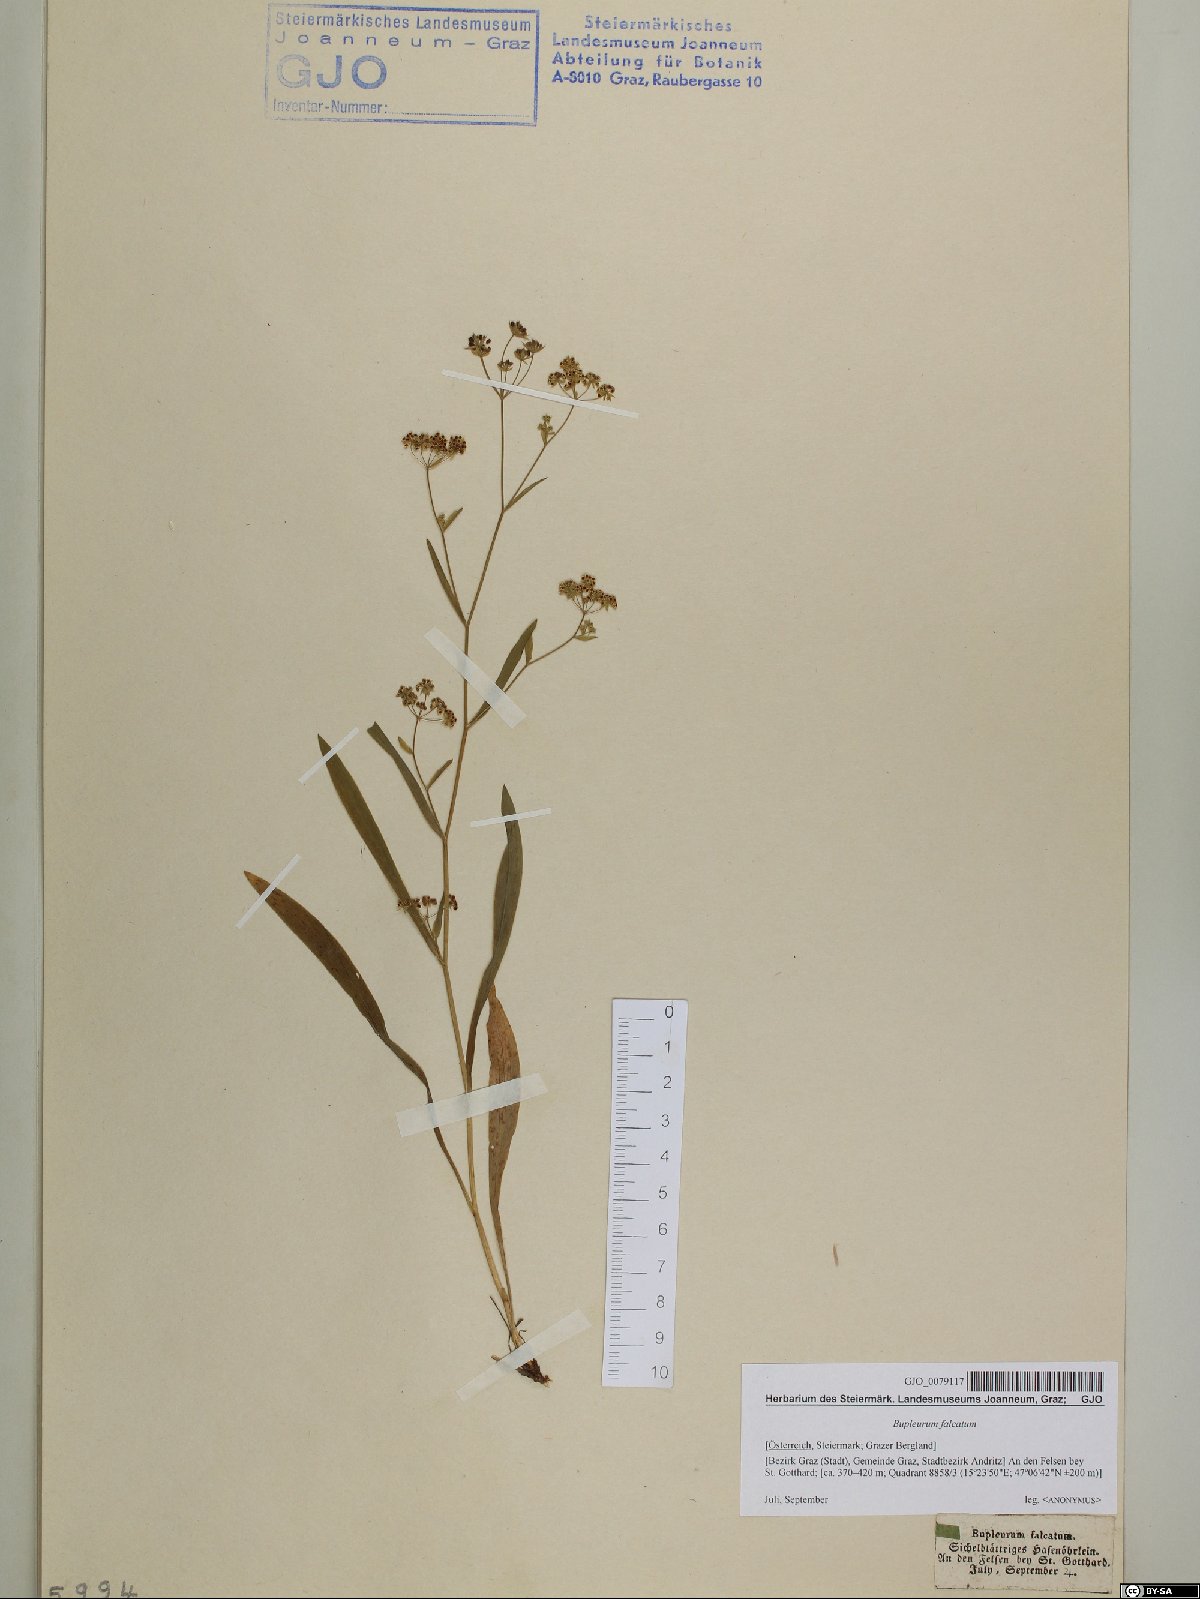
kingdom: Plantae
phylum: Tracheophyta
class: Magnoliopsida
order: Apiales
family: Apiaceae
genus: Bupleurum
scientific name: Bupleurum falcatum
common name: Sickle-leaved hare's-ear
